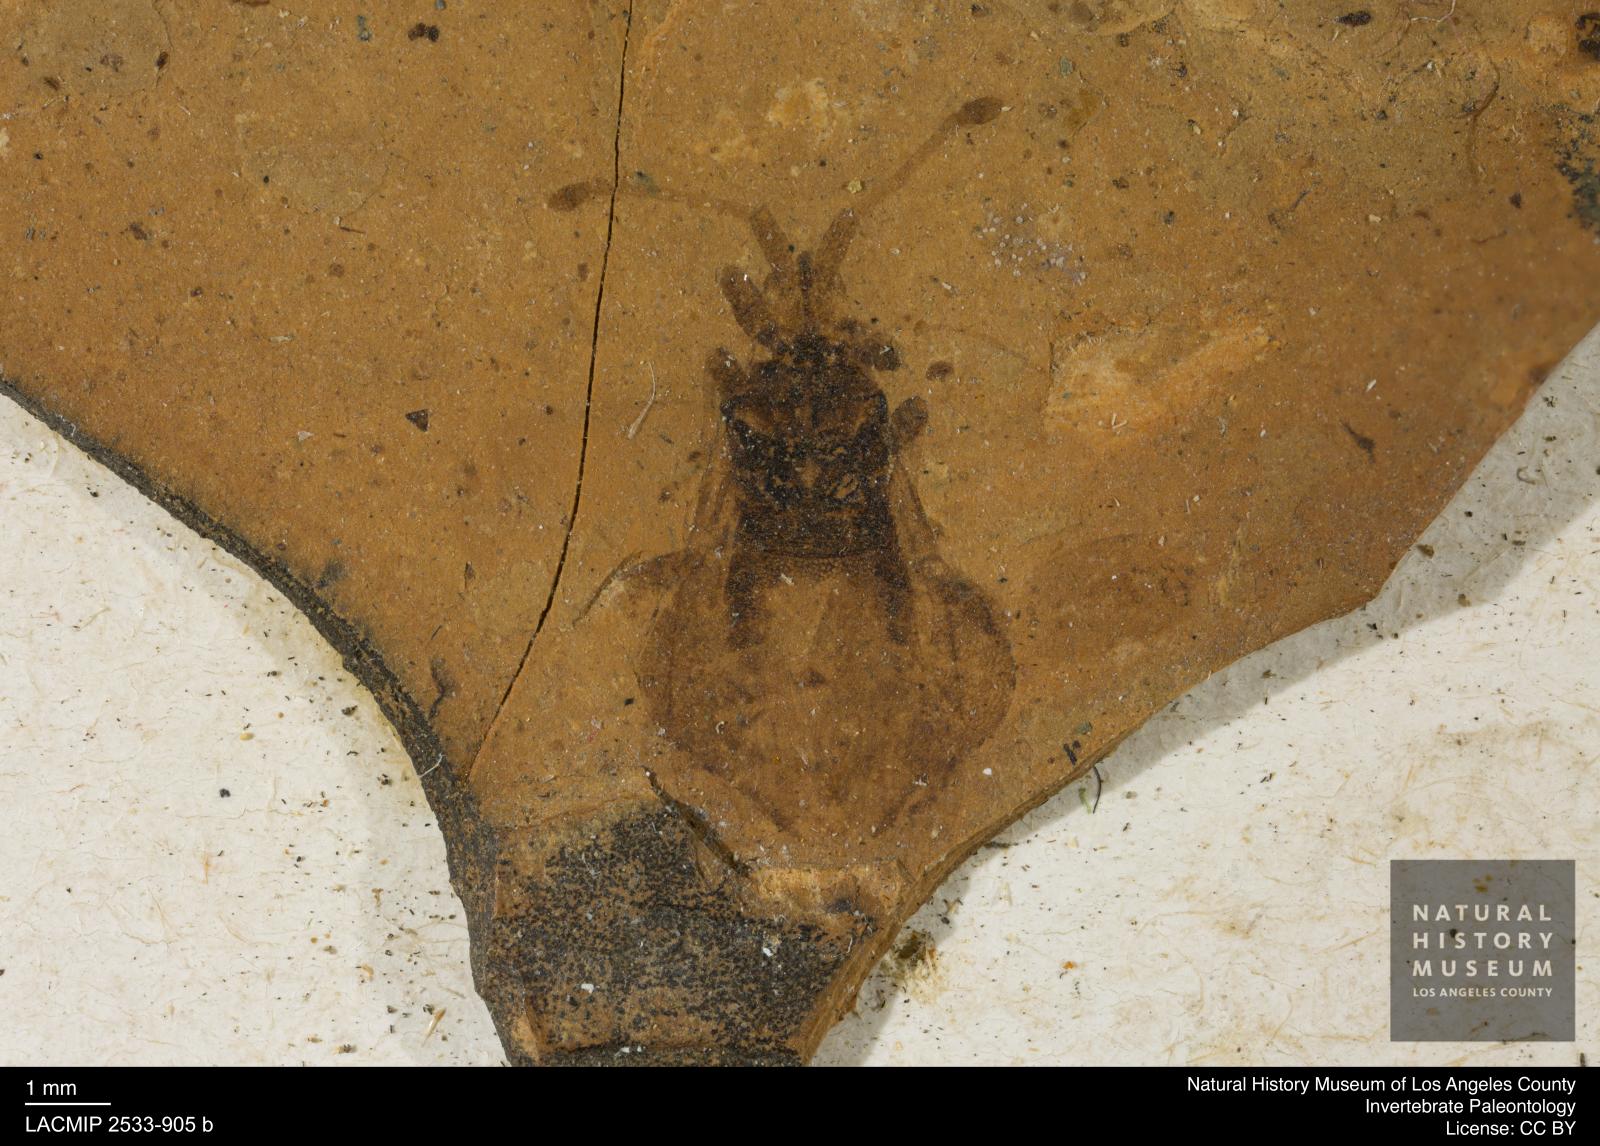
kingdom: Animalia
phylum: Arthropoda
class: Insecta
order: Hemiptera
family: Coreidae
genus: Syromastus
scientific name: Syromastus punctiventris
